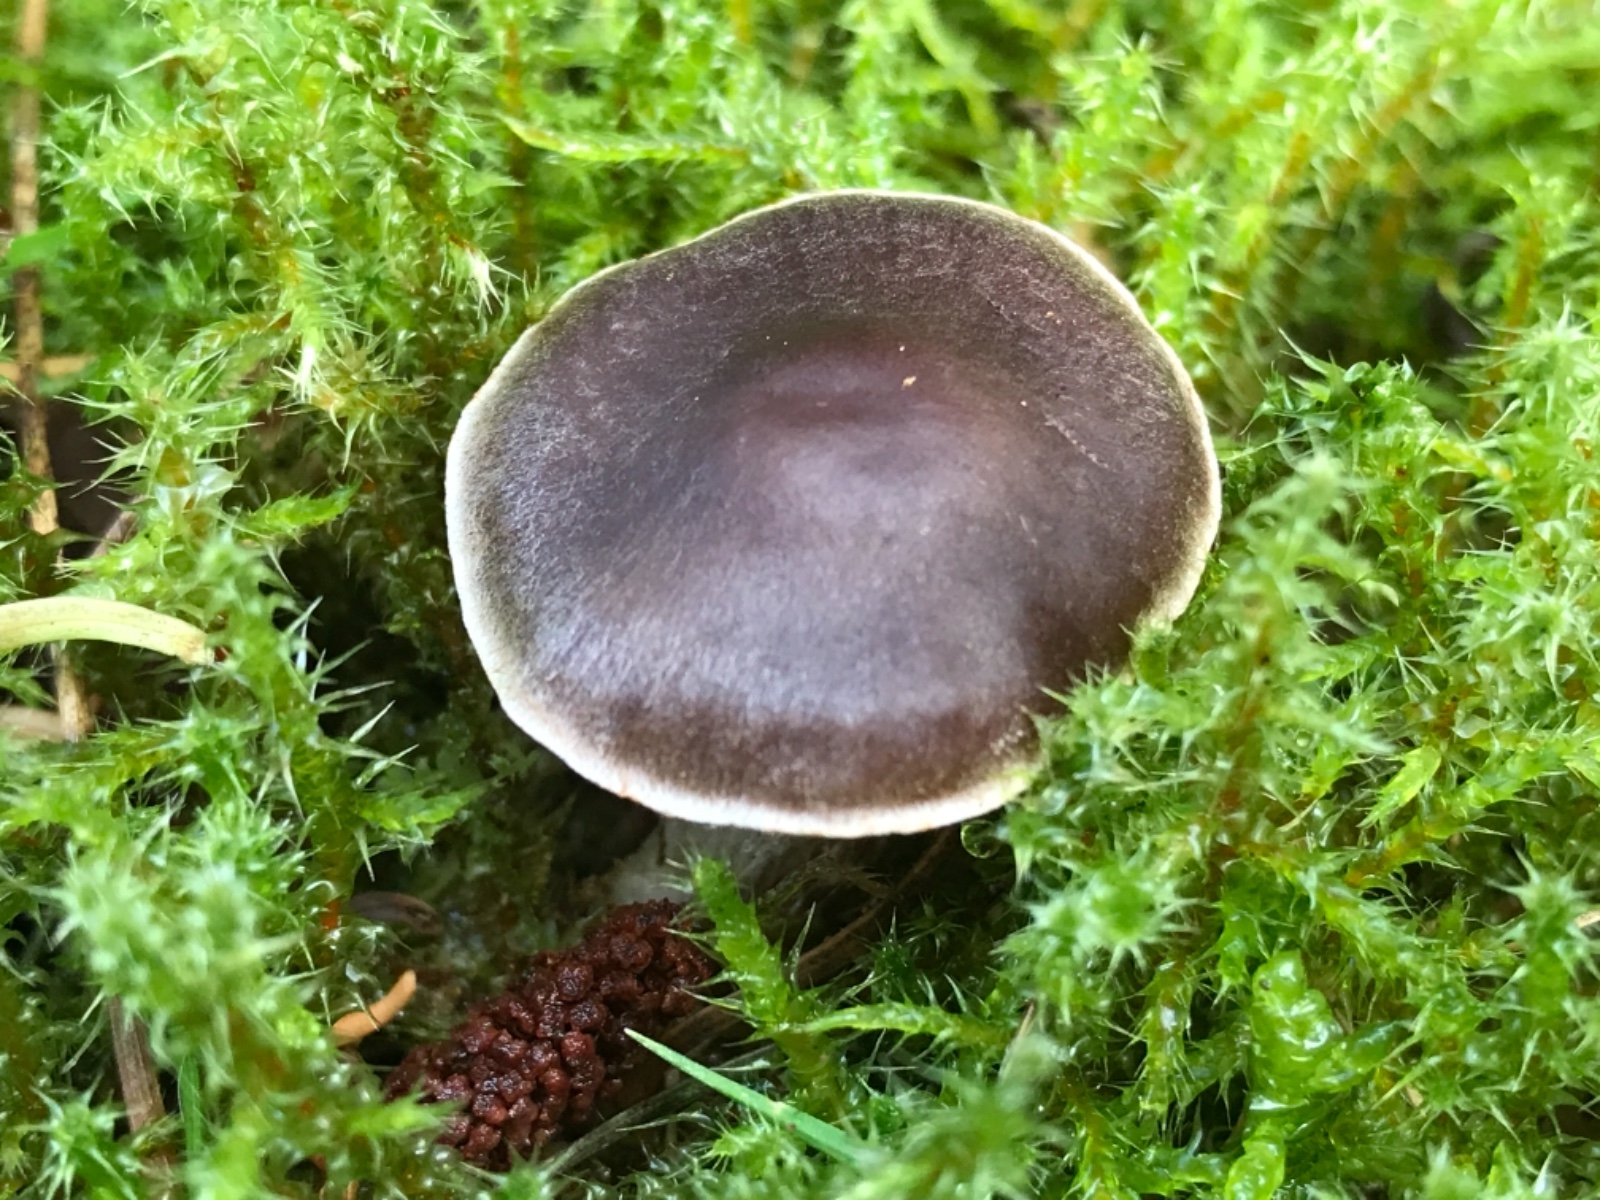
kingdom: Fungi
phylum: Basidiomycota
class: Agaricomycetes
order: Agaricales
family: Cortinariaceae
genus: Cortinarius
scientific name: Cortinarius
